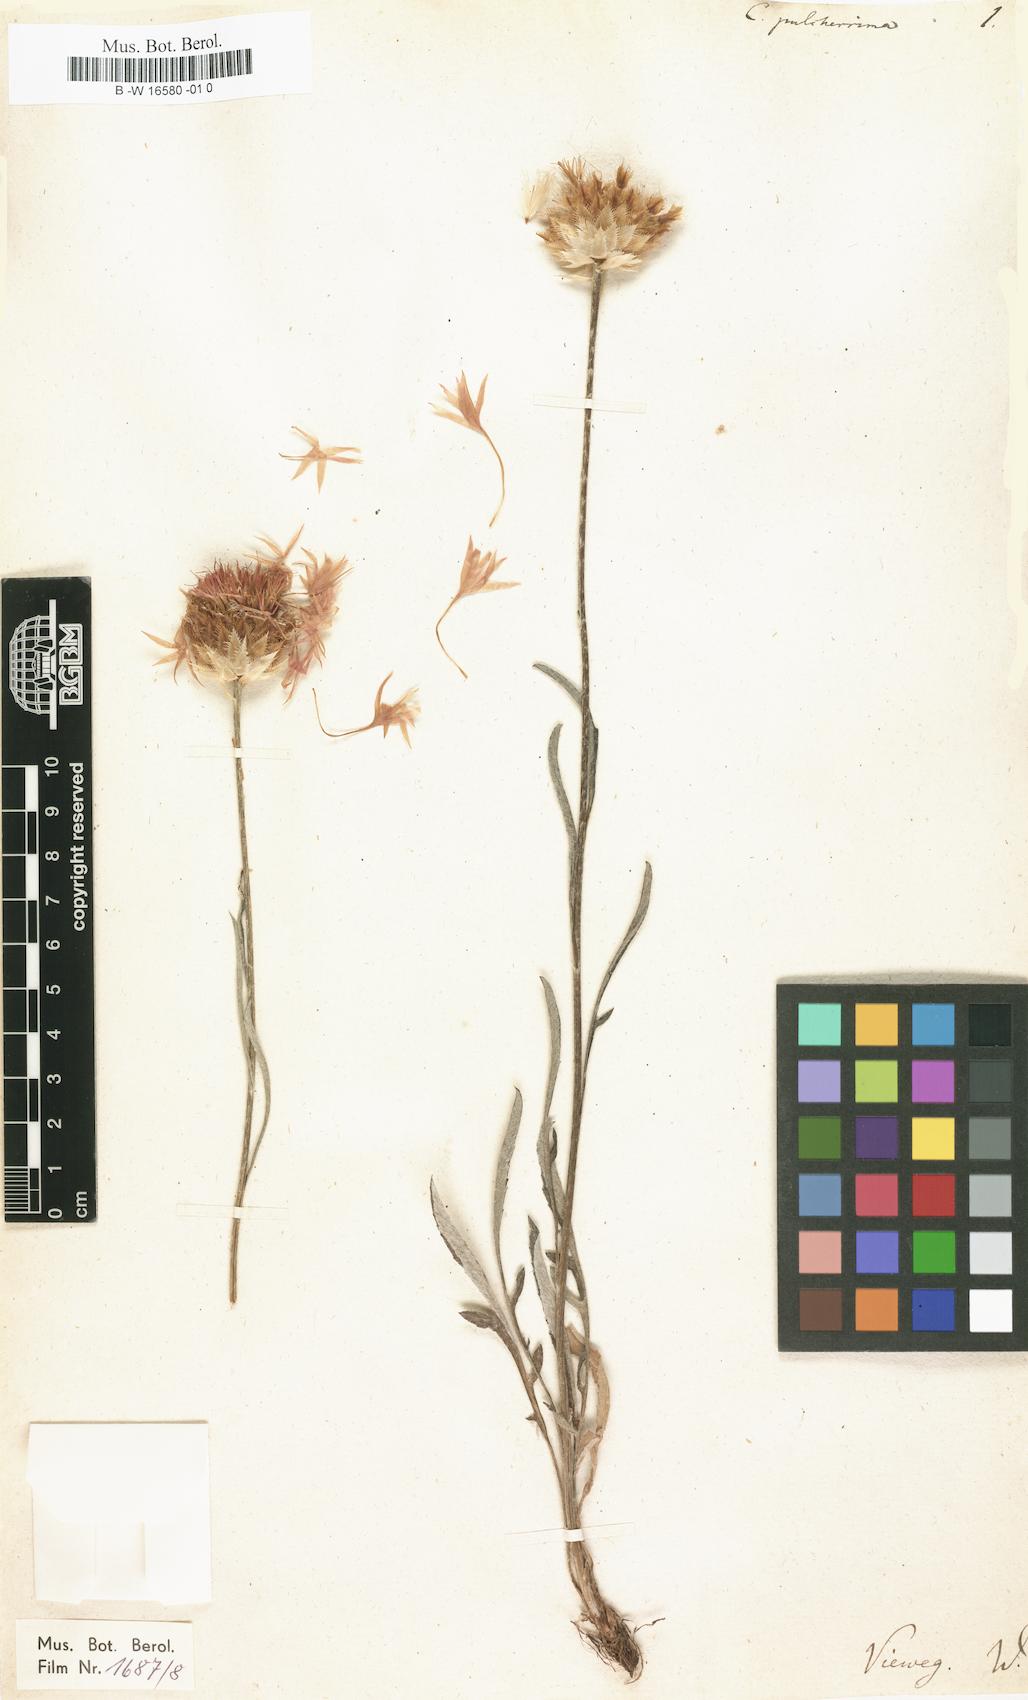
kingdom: Plantae
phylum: Tracheophyta
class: Magnoliopsida
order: Asterales
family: Asteraceae
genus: Psephellus
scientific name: Psephellus pulcherrimus
